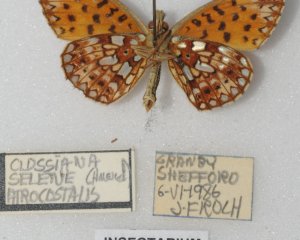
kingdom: Animalia
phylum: Arthropoda
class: Insecta
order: Lepidoptera
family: Nymphalidae
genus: Boloria
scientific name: Boloria selene
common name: Silver-bordered Fritillary
